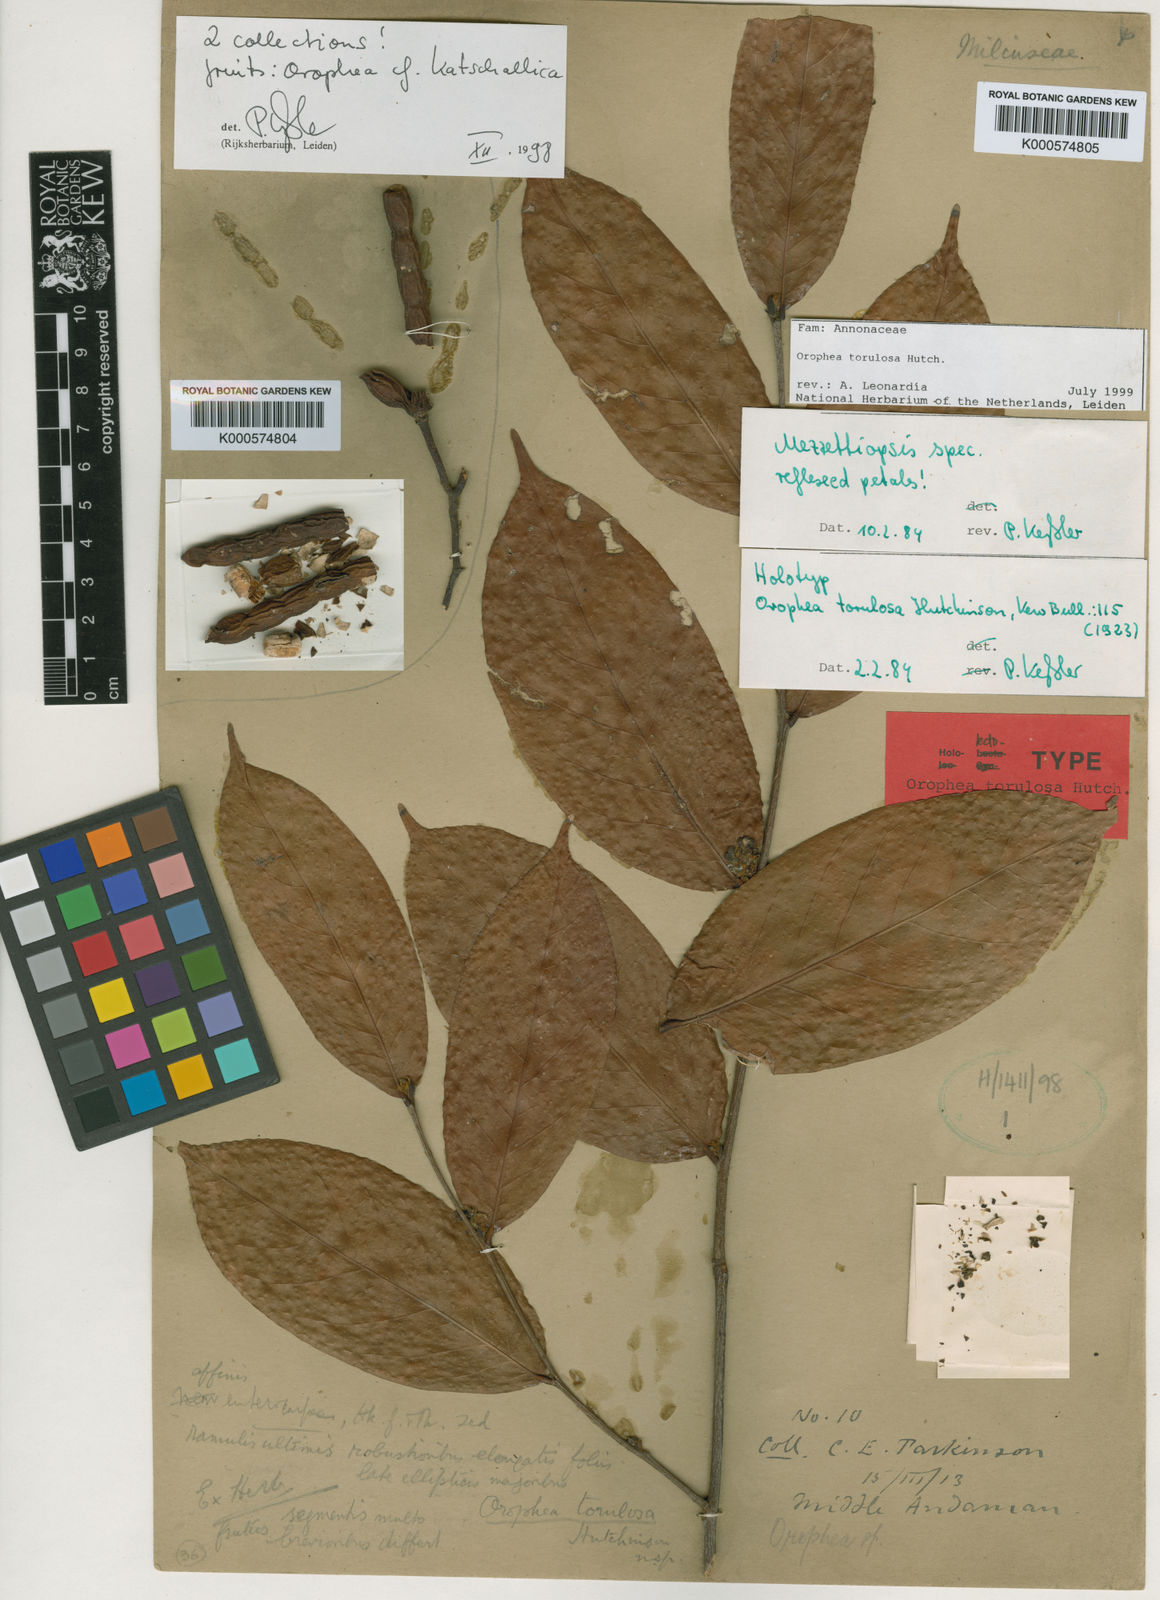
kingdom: Plantae
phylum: Tracheophyta
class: Magnoliopsida
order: Magnoliales
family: Annonaceae
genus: Orophea
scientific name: Orophea torulosa
